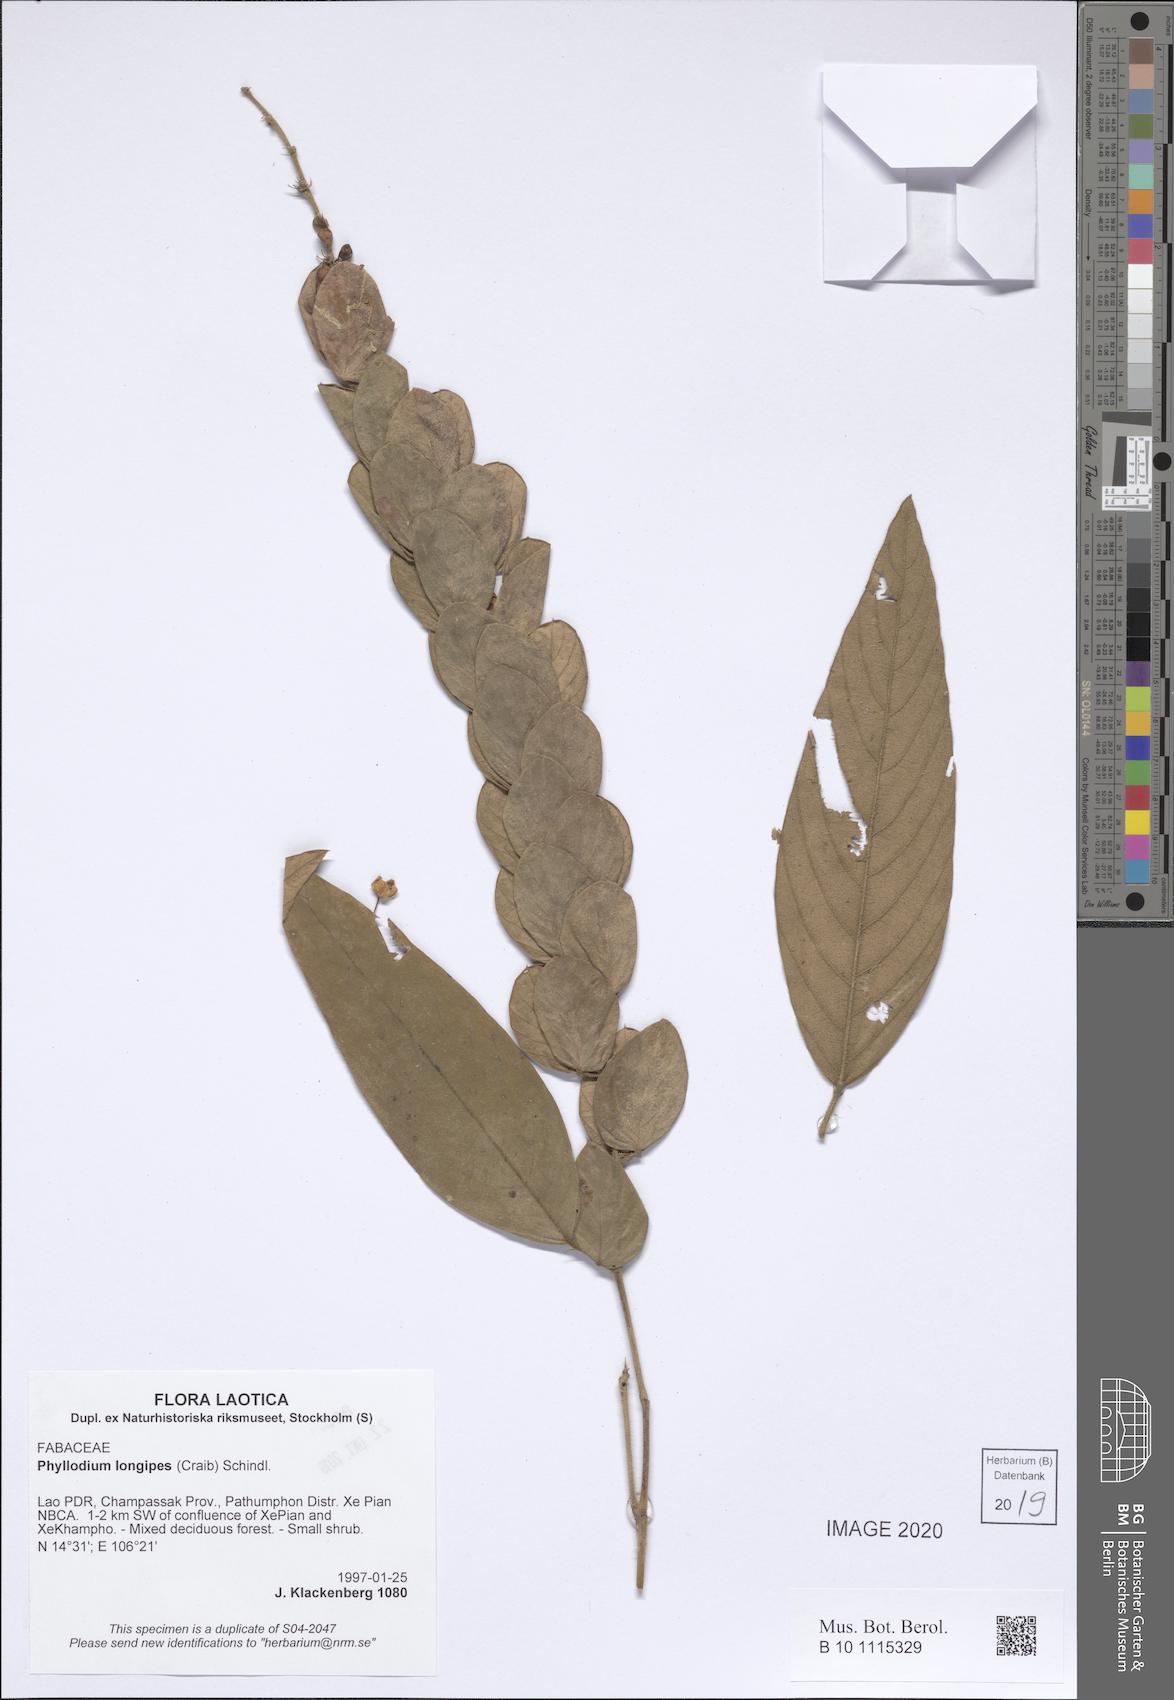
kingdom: Plantae
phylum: Tracheophyta
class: Magnoliopsida
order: Fabales
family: Fabaceae
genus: Phyllodium
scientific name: Phyllodium longipes
